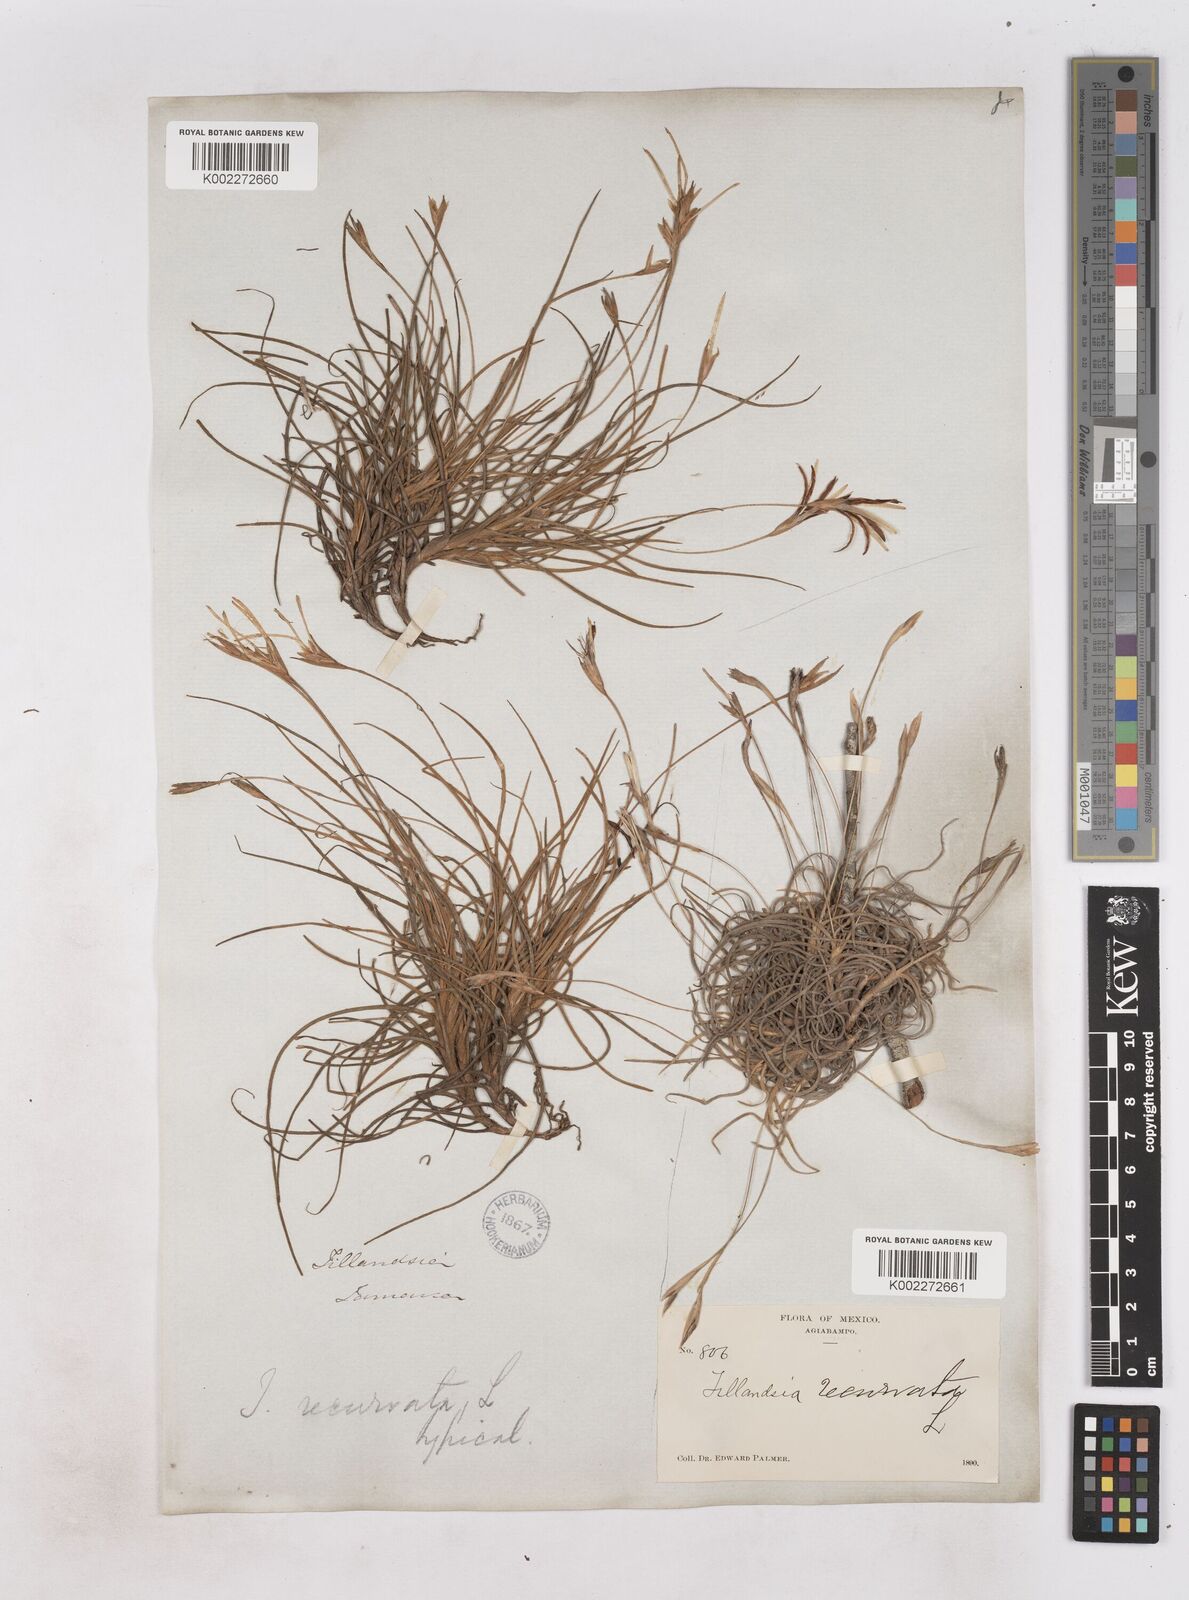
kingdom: Plantae
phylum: Tracheophyta
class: Liliopsida
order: Poales
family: Bromeliaceae
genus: Tillandsia
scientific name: Tillandsia recurvata
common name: Small ballmoss
